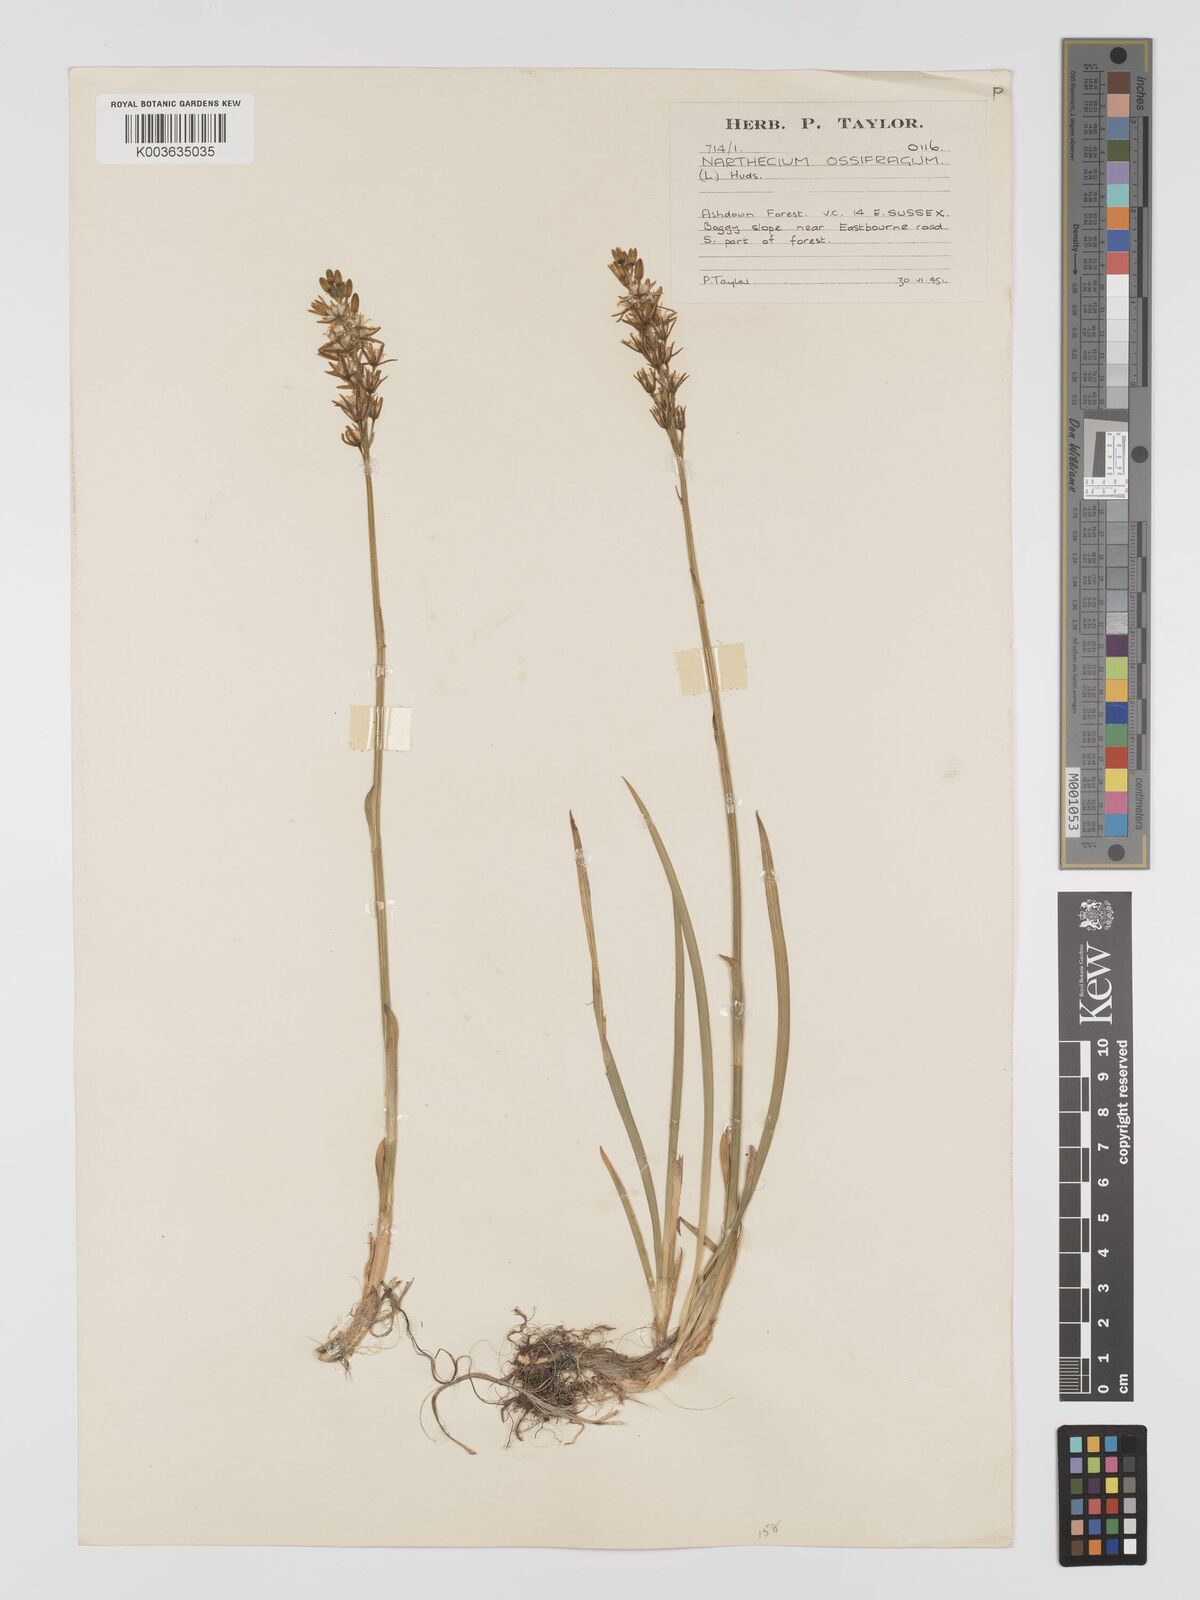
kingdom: Plantae
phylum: Tracheophyta
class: Liliopsida
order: Dioscoreales
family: Nartheciaceae
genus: Narthecium
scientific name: Narthecium
